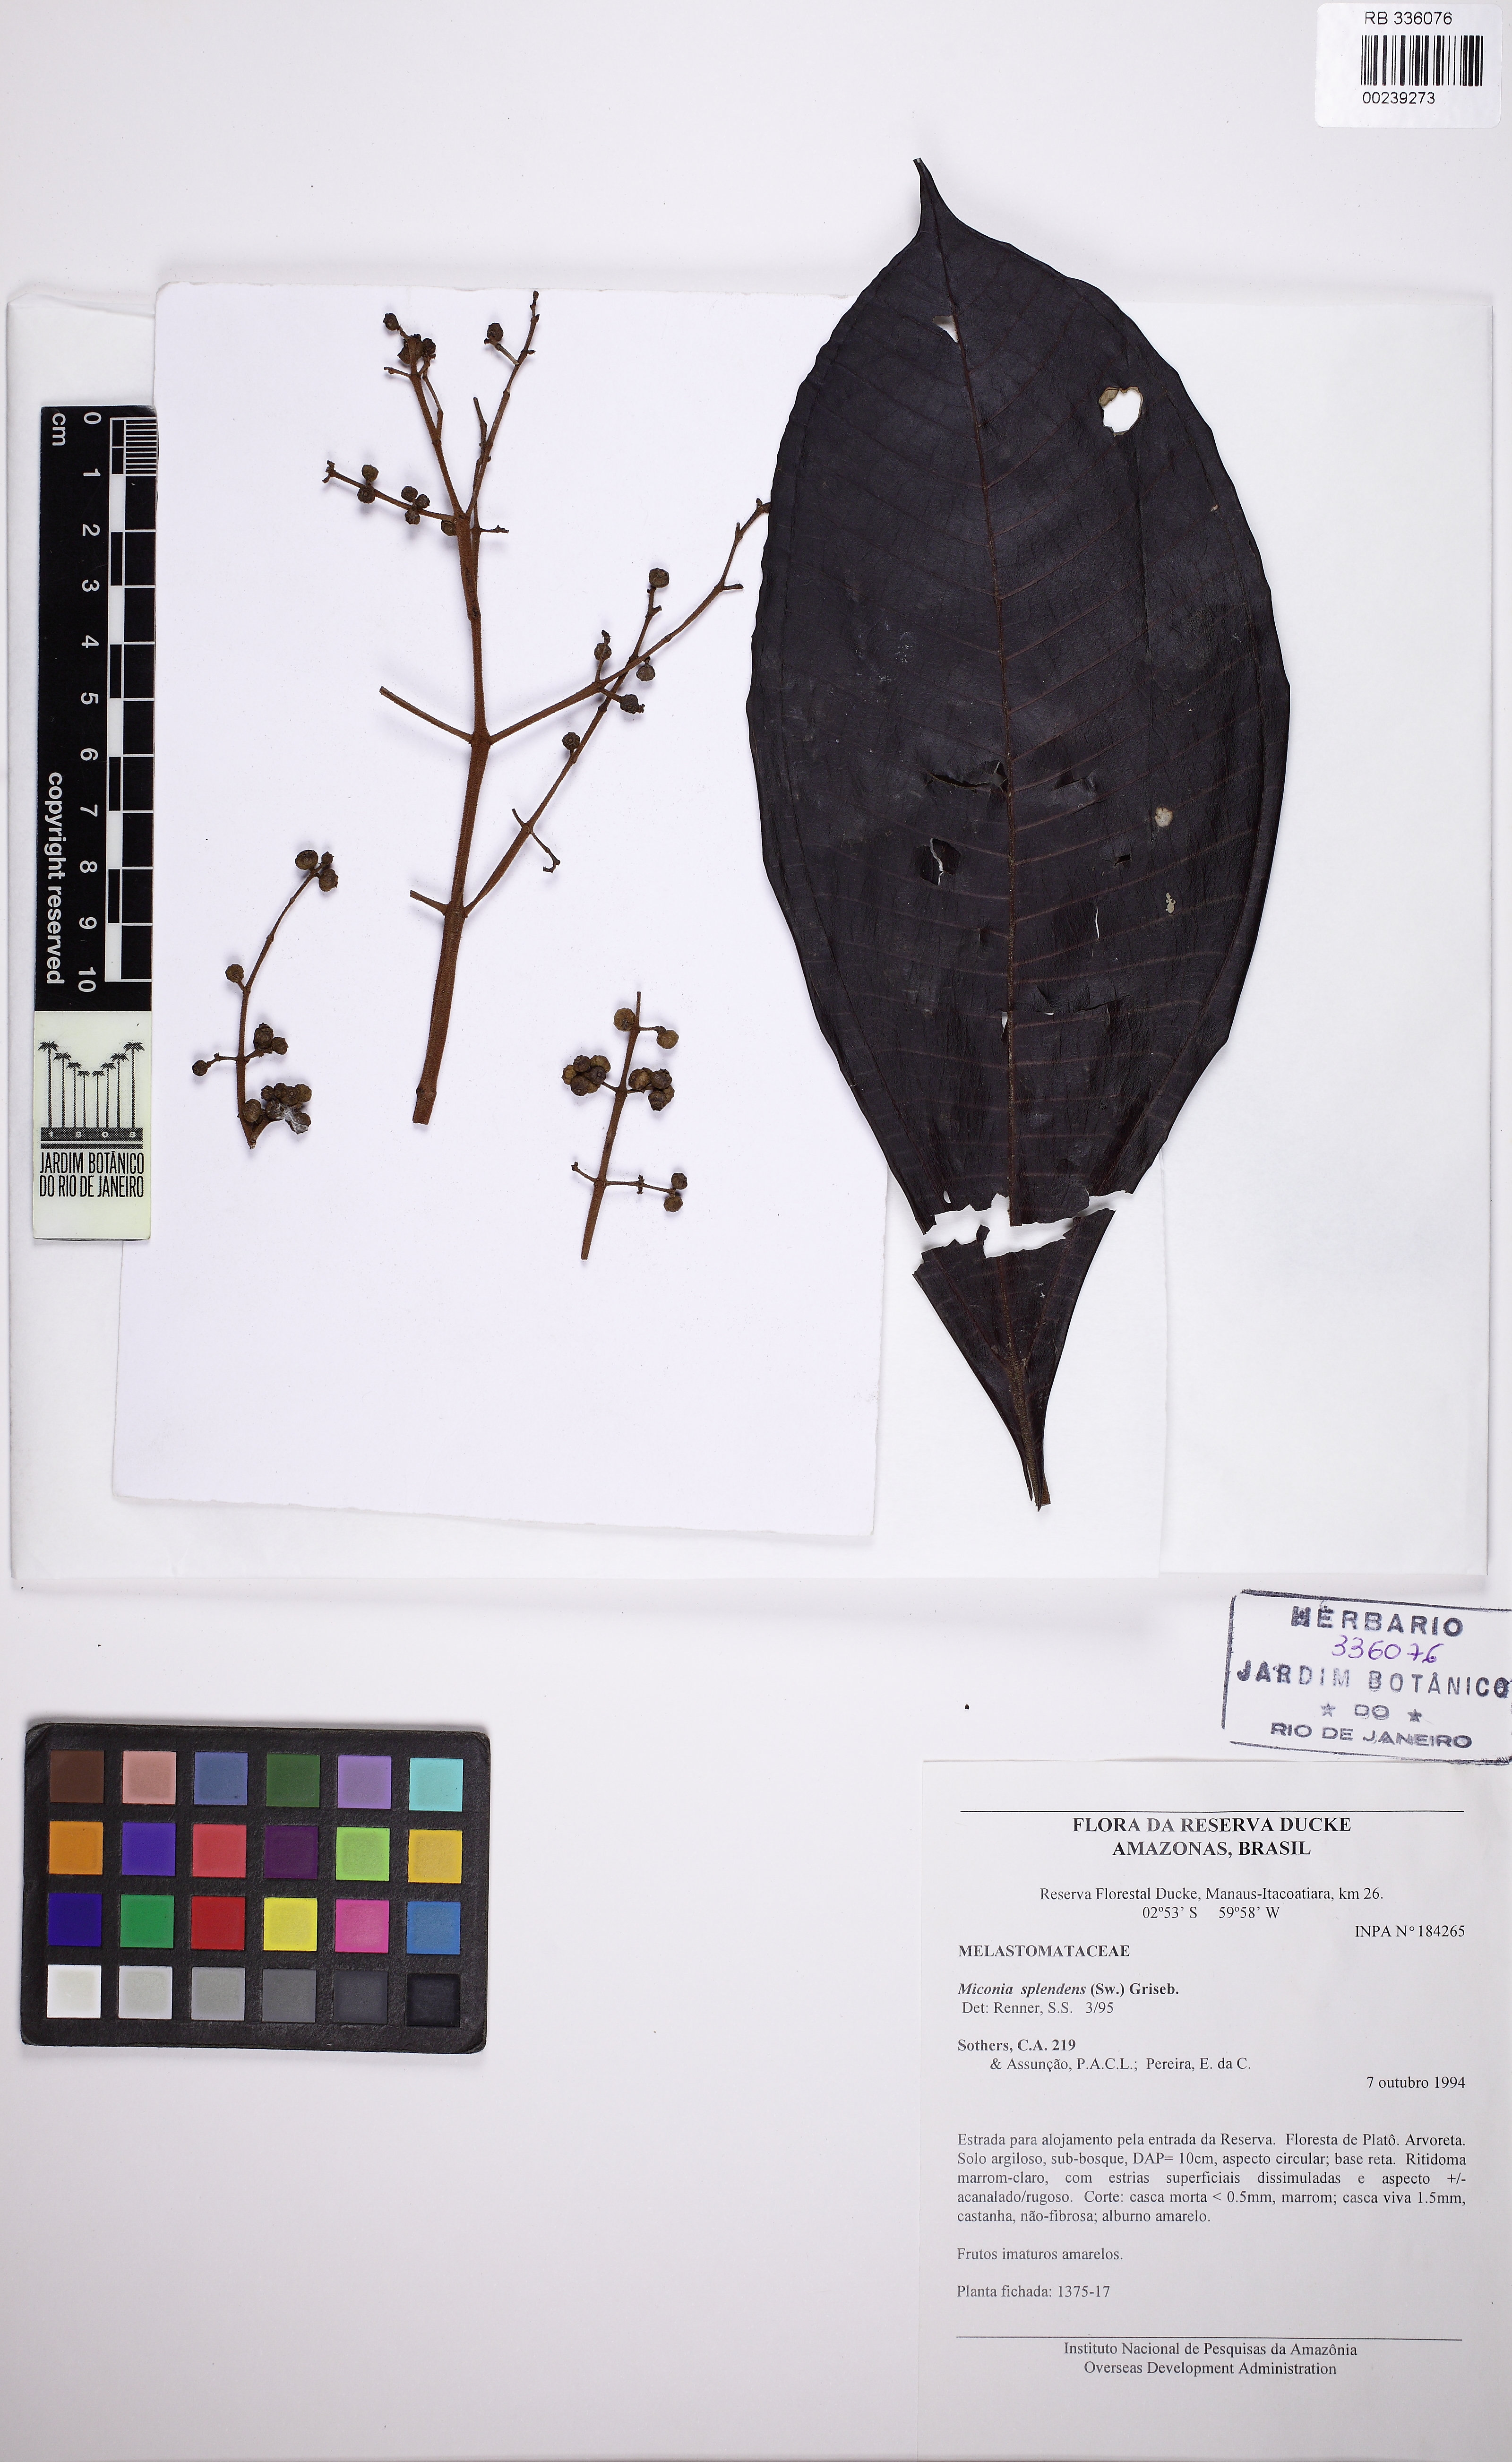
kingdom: Plantae
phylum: Tracheophyta
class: Magnoliopsida
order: Myrtales
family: Melastomataceae
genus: Miconia
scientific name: Miconia splendens
